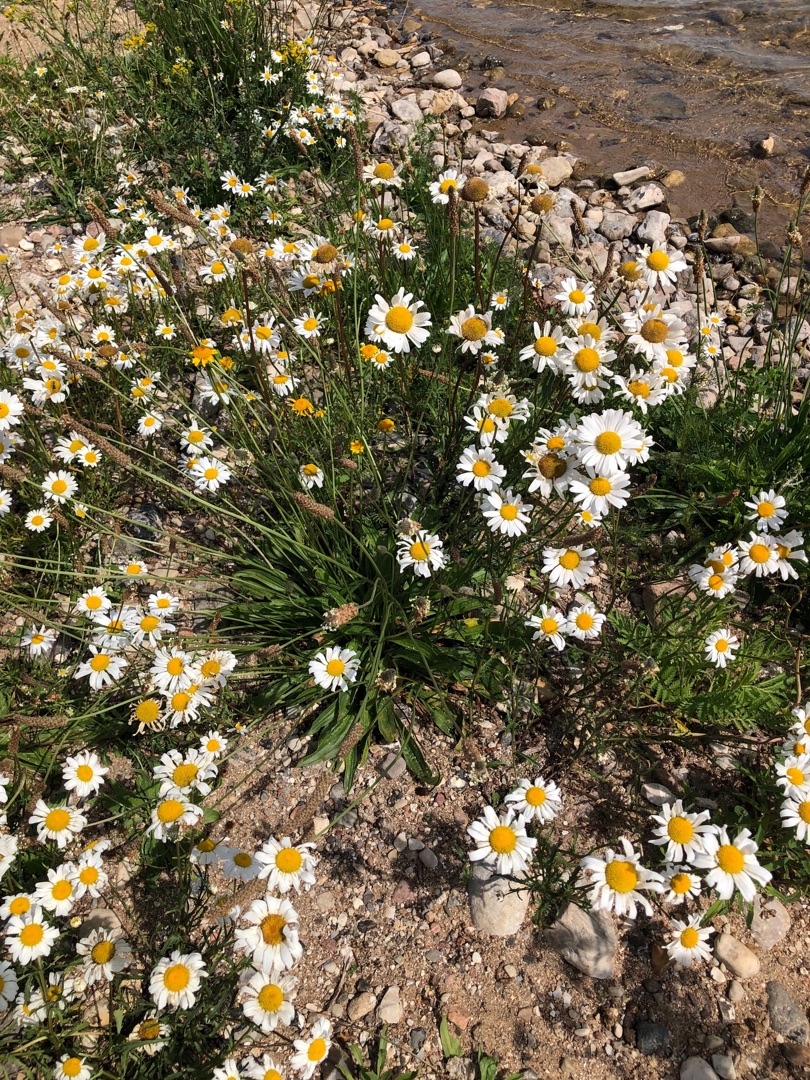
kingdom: Plantae
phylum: Tracheophyta
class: Magnoliopsida
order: Asterales
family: Asteraceae
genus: Tripleurospermum
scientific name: Tripleurospermum inodorum
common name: Lugtløs kamille
